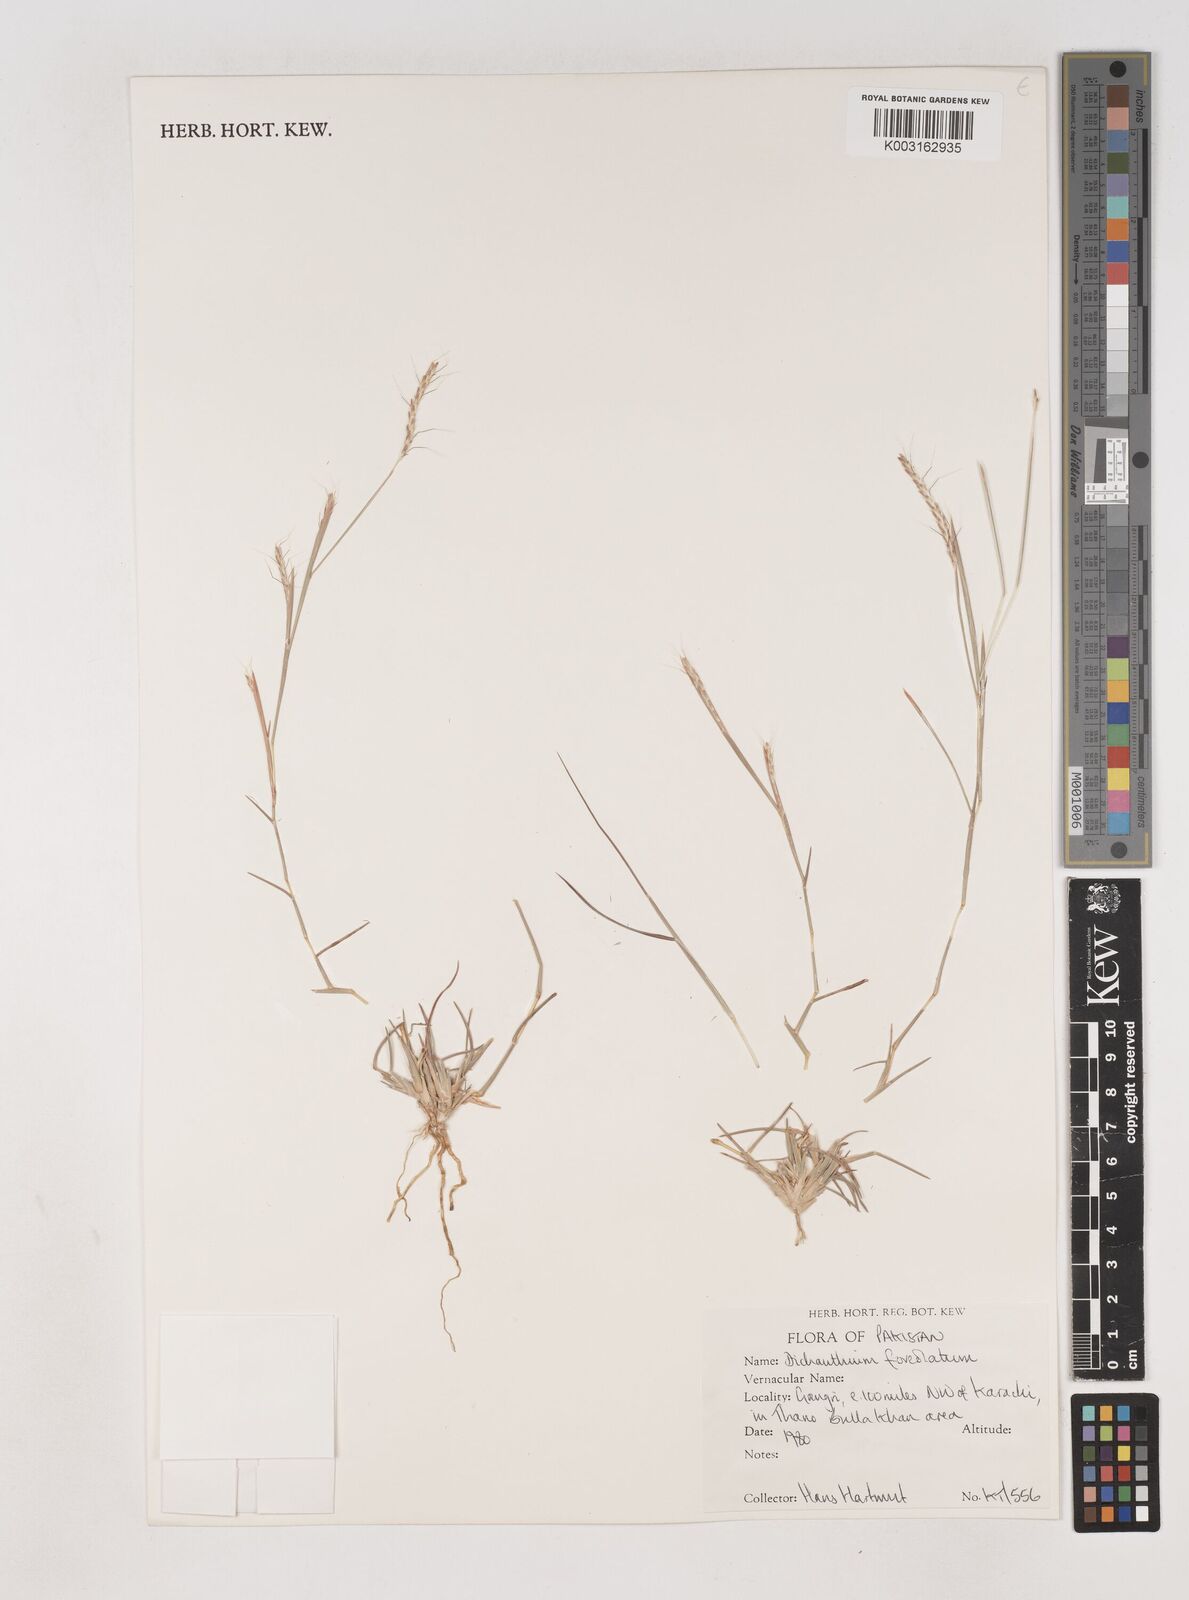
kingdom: Plantae
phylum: Tracheophyta
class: Liliopsida
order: Poales
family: Poaceae
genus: Dichanthium
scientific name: Dichanthium
